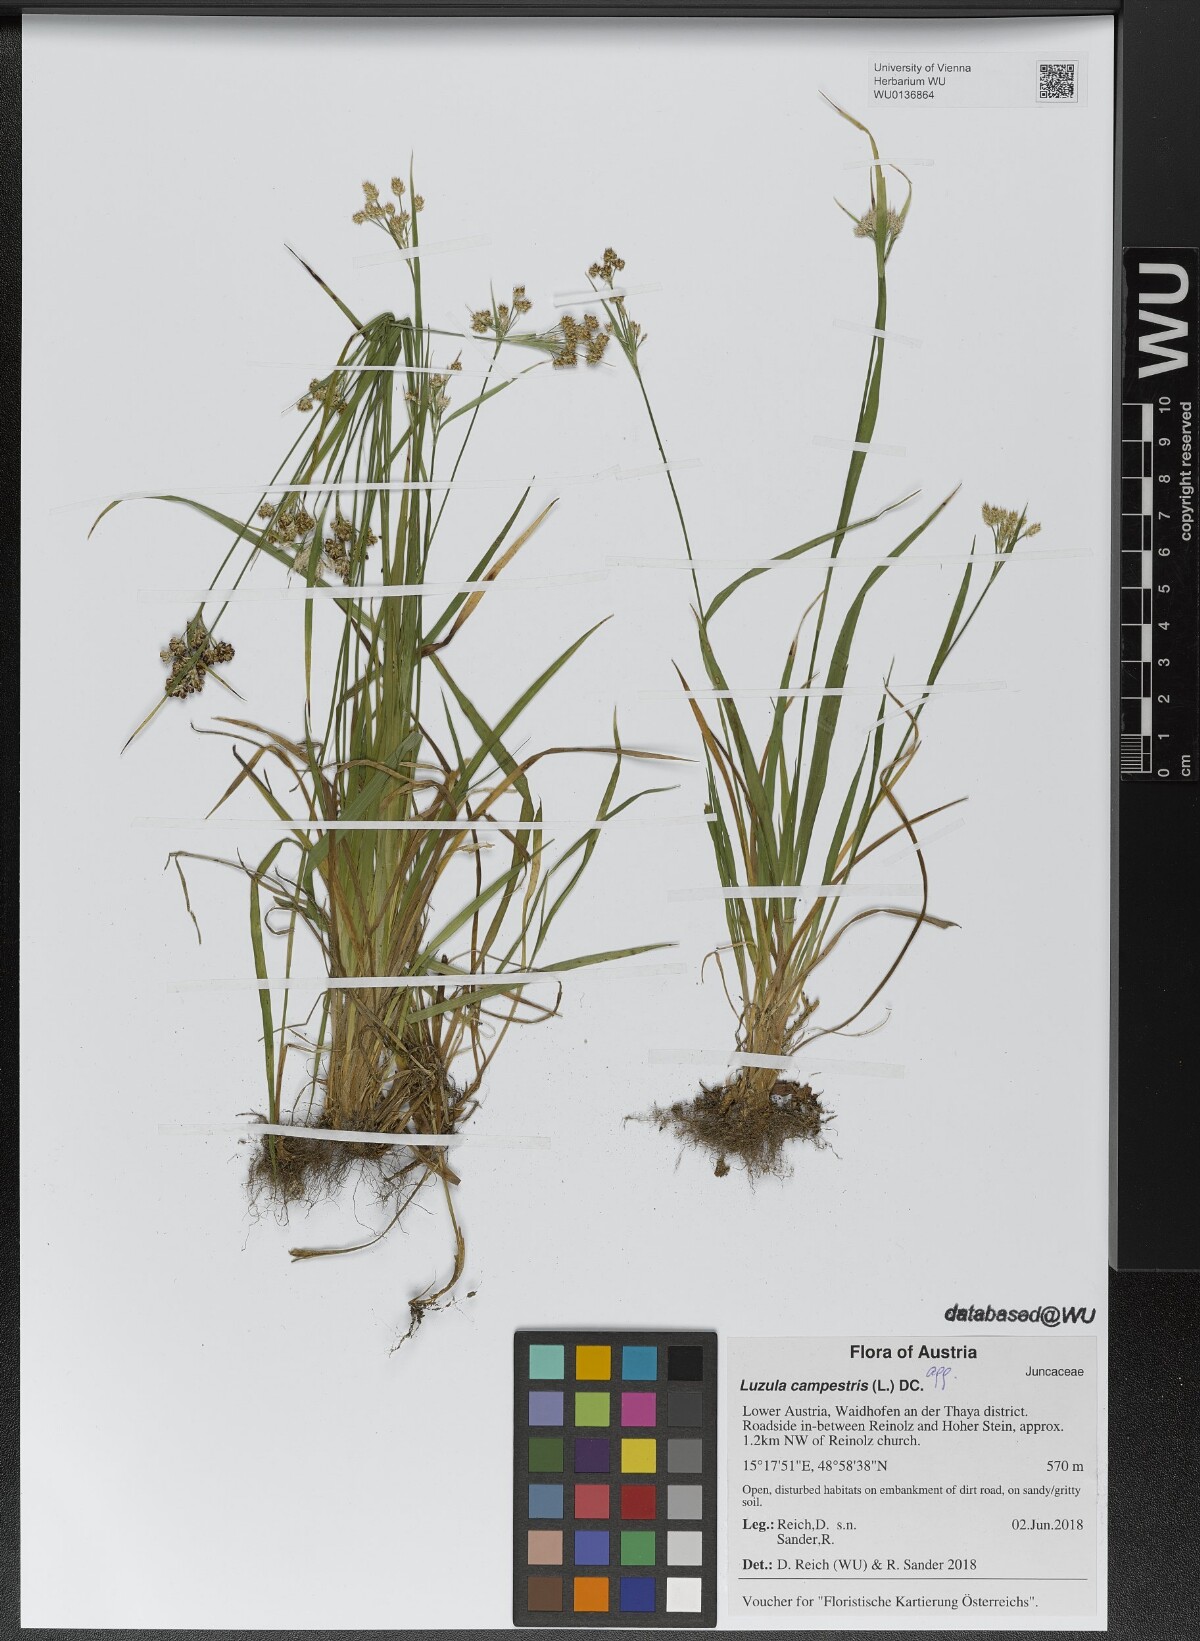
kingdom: Plantae
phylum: Tracheophyta
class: Liliopsida
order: Poales
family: Juncaceae
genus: Luzula
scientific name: Luzula campestris
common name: Field wood-rush
